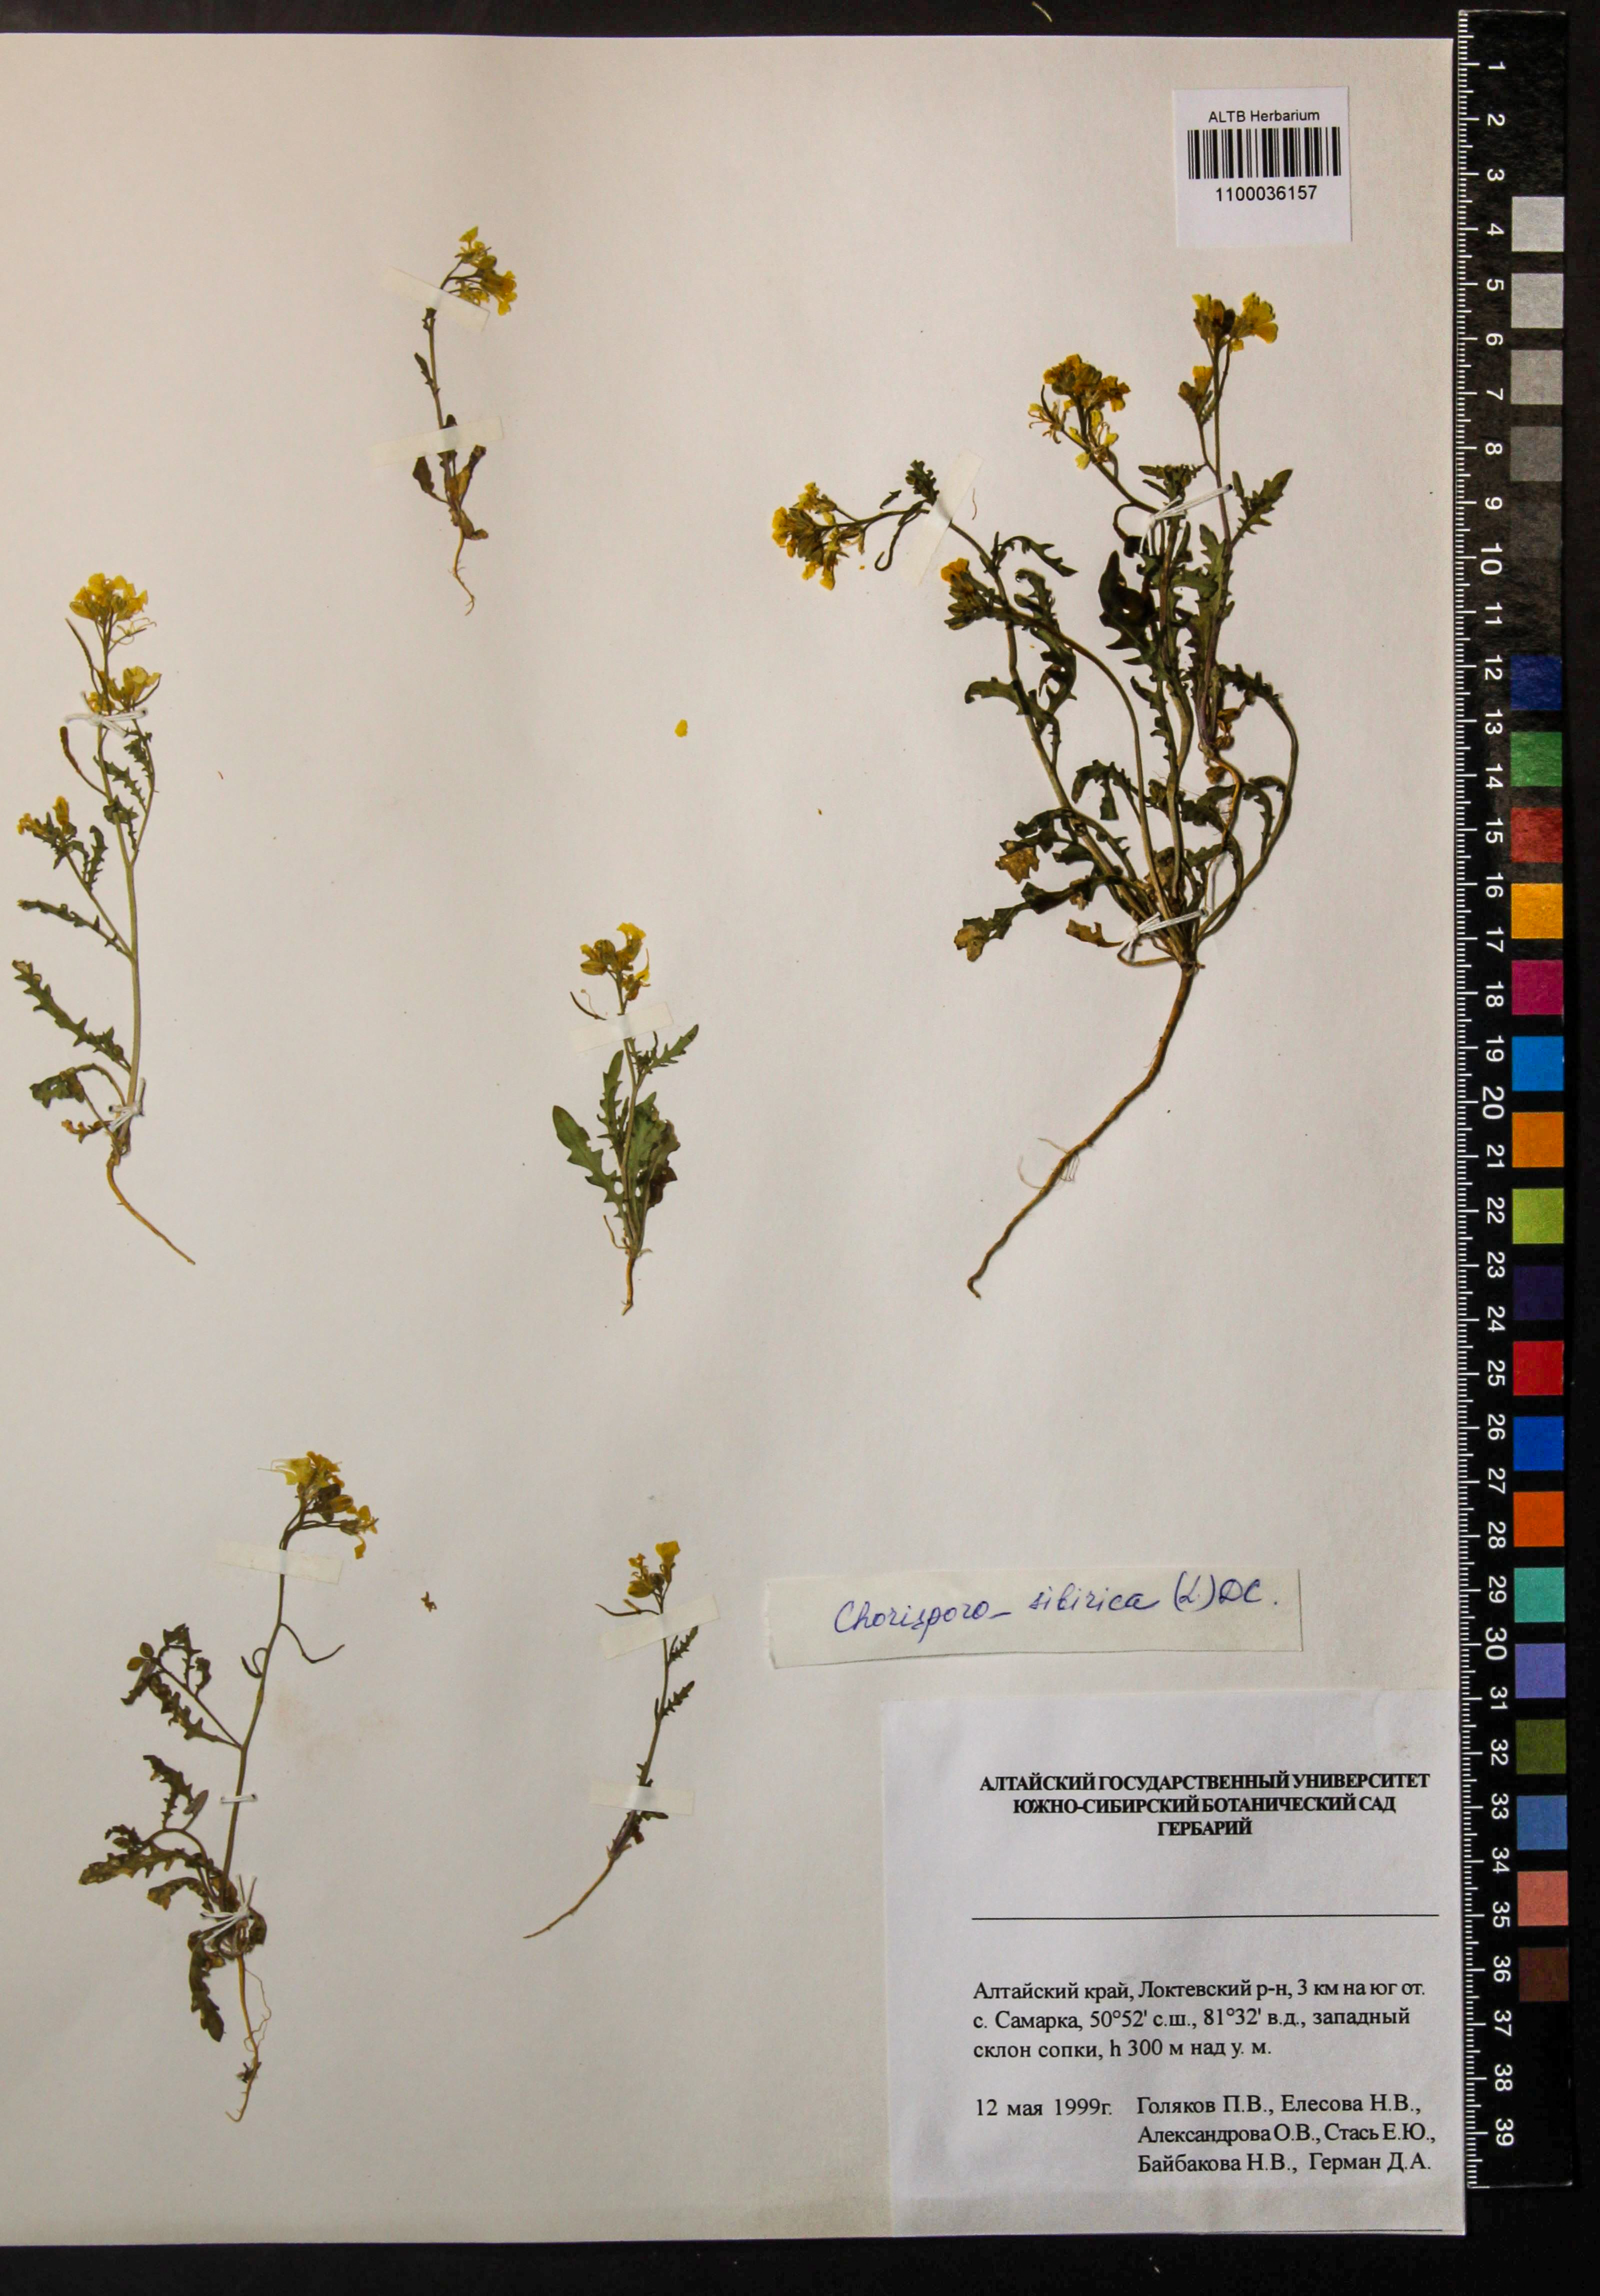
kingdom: Plantae
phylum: Tracheophyta
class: Magnoliopsida
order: Brassicales
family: Brassicaceae
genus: Chorispora
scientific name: Chorispora sibirica
